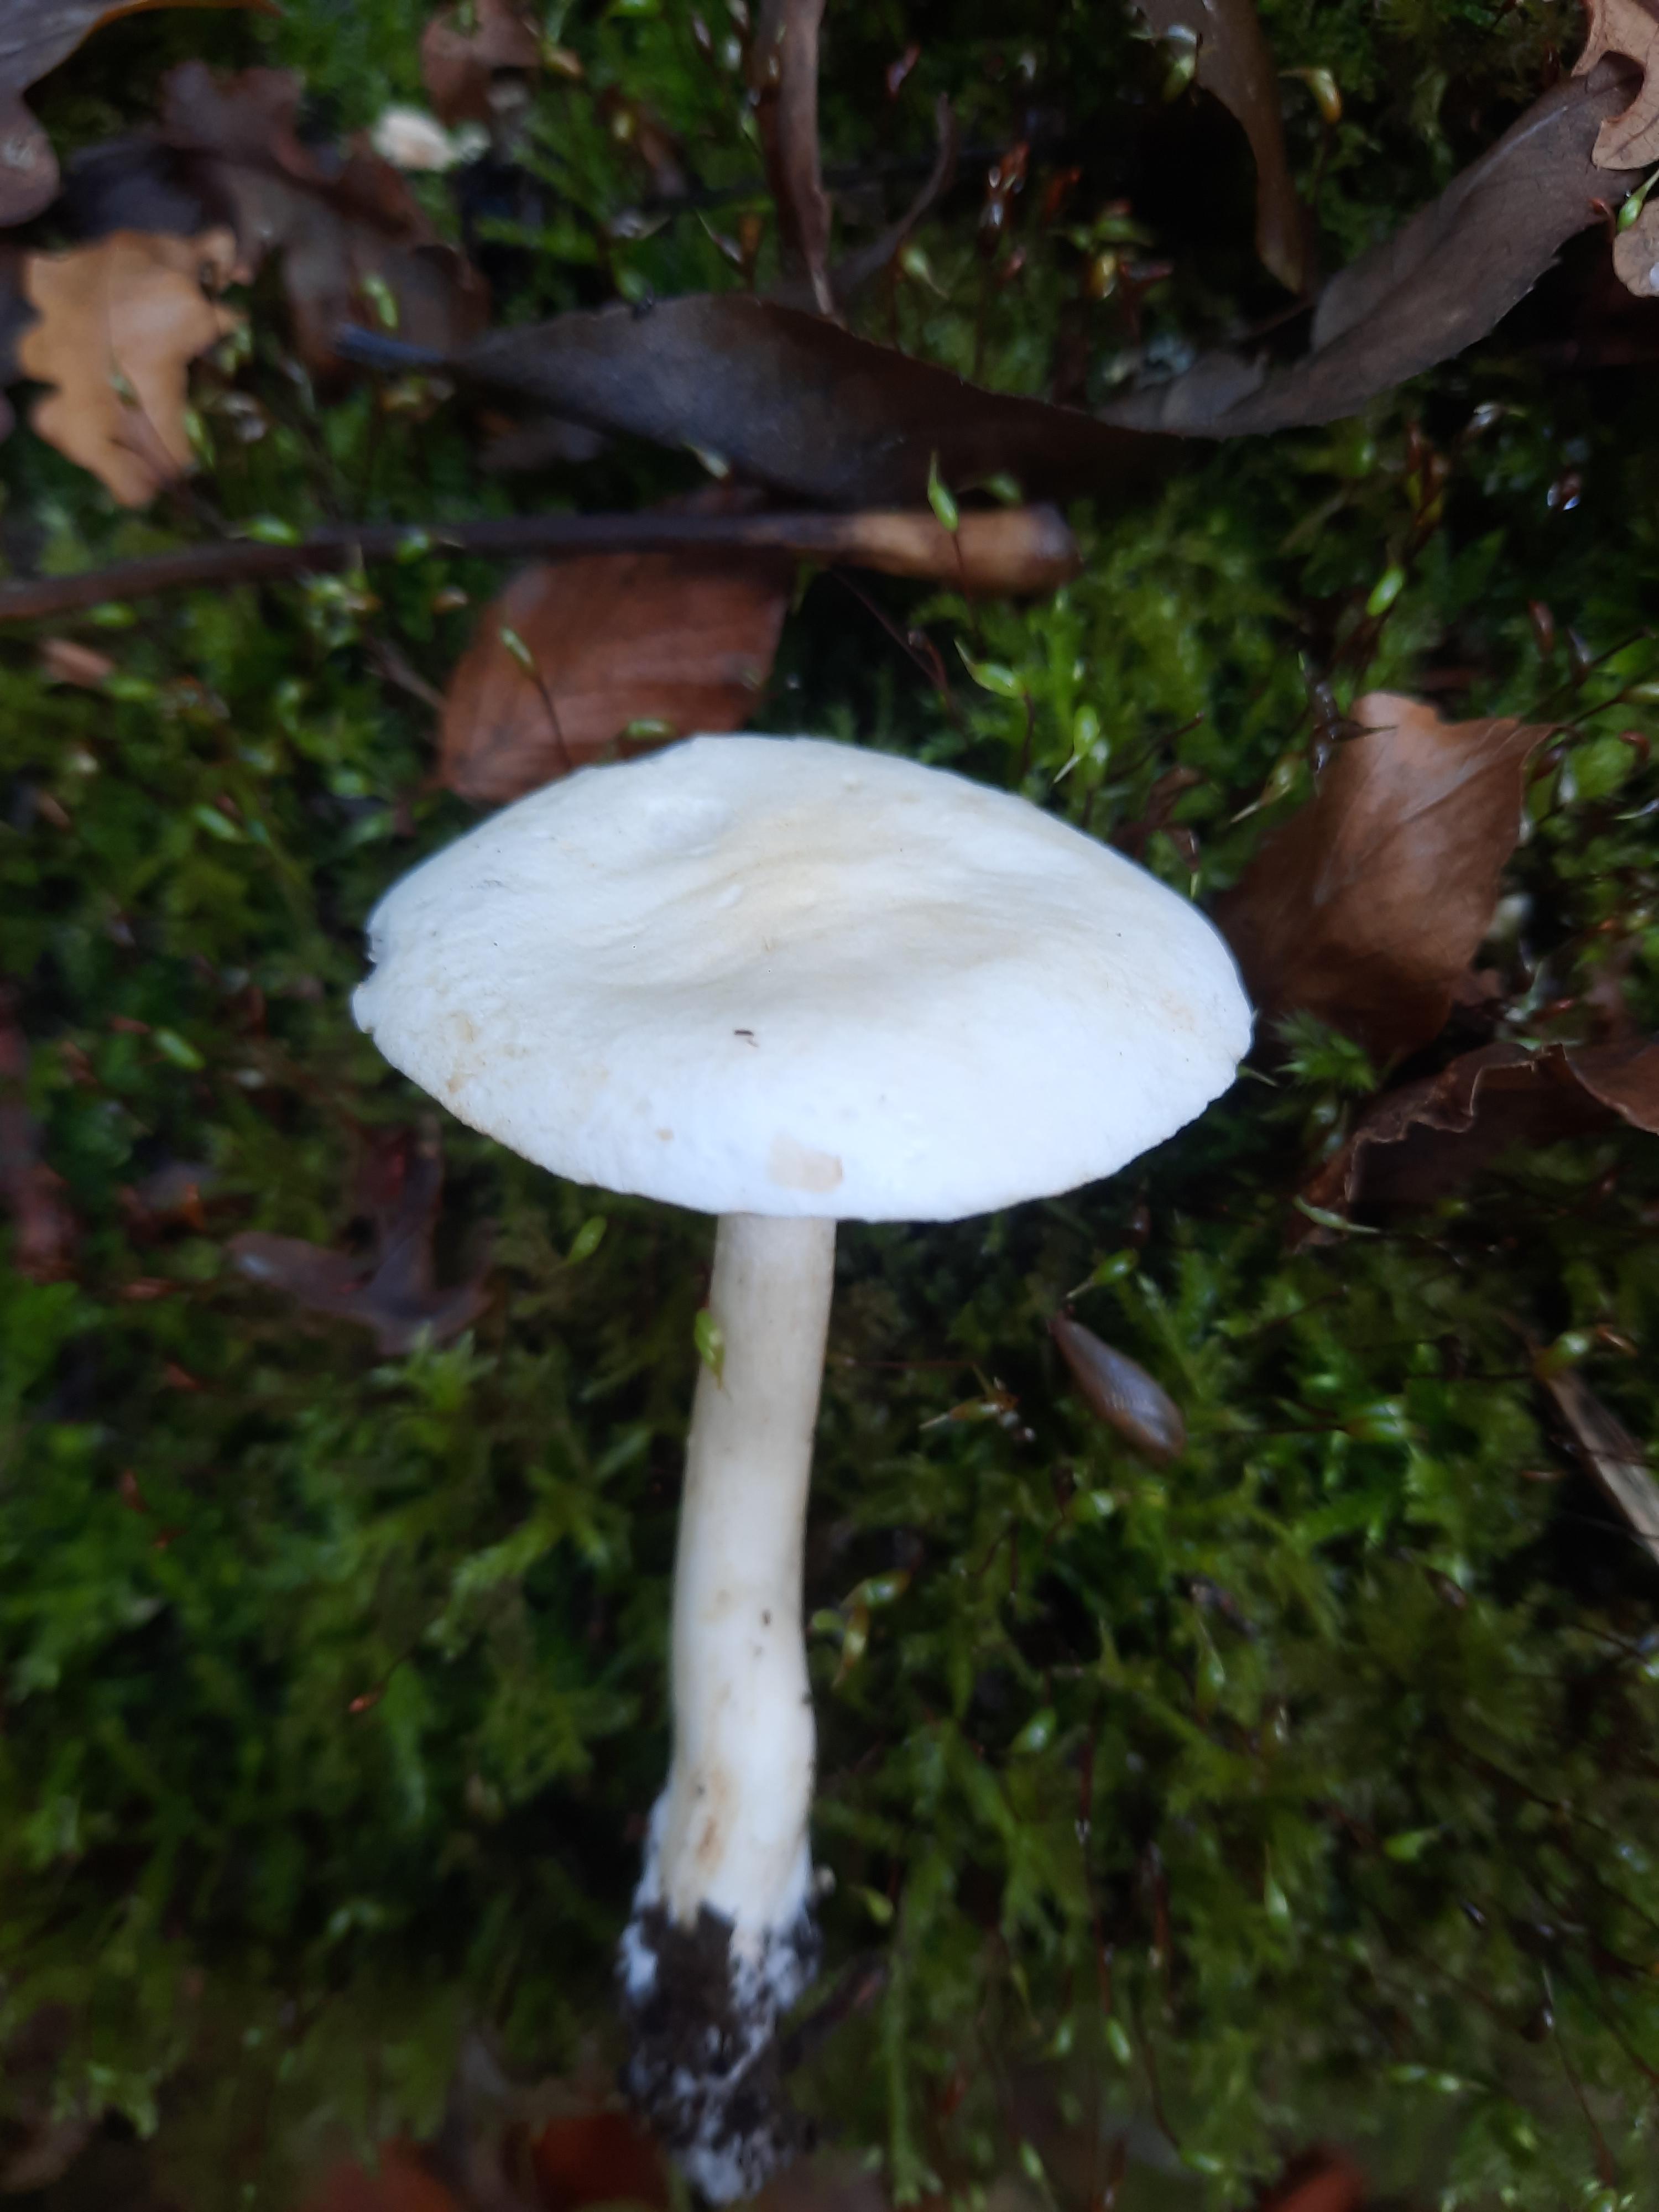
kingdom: Fungi
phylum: Basidiomycota
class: Agaricomycetes
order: Agaricales
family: Tricholomataceae
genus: Tricholoma
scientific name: Tricholoma
